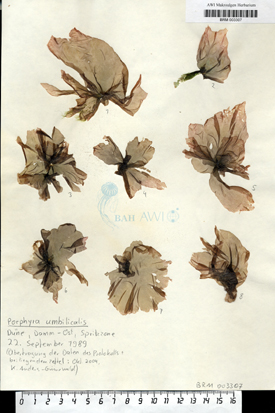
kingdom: Plantae
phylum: Rhodophyta
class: Bangiophyceae
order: Bangiales
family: Bangiaceae
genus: Porphyra
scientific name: Porphyra umbilicalis
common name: Purple laver
